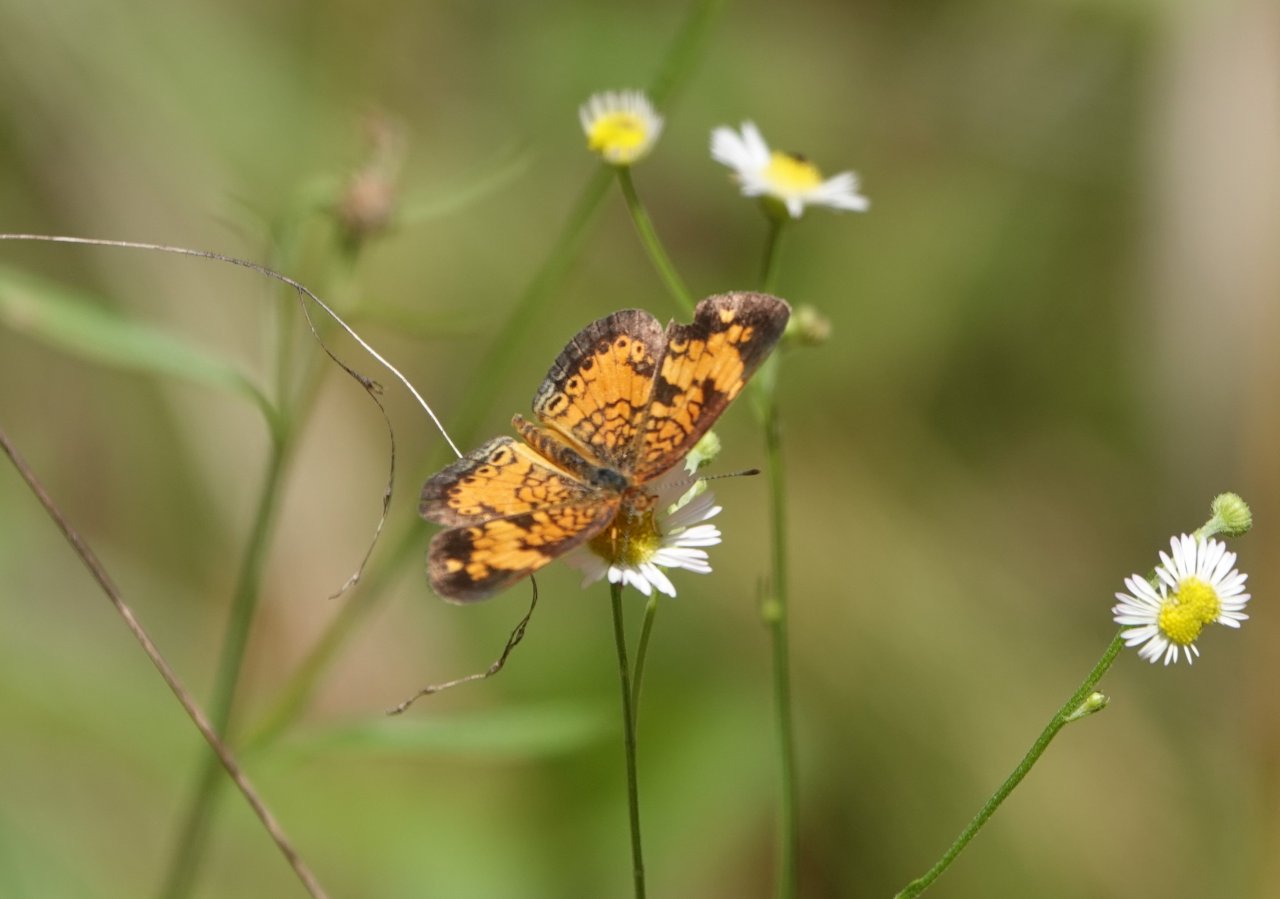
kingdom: Animalia
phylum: Arthropoda
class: Insecta
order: Lepidoptera
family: Nymphalidae
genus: Phyciodes
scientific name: Phyciodes tharos
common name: Pearl Crescent
